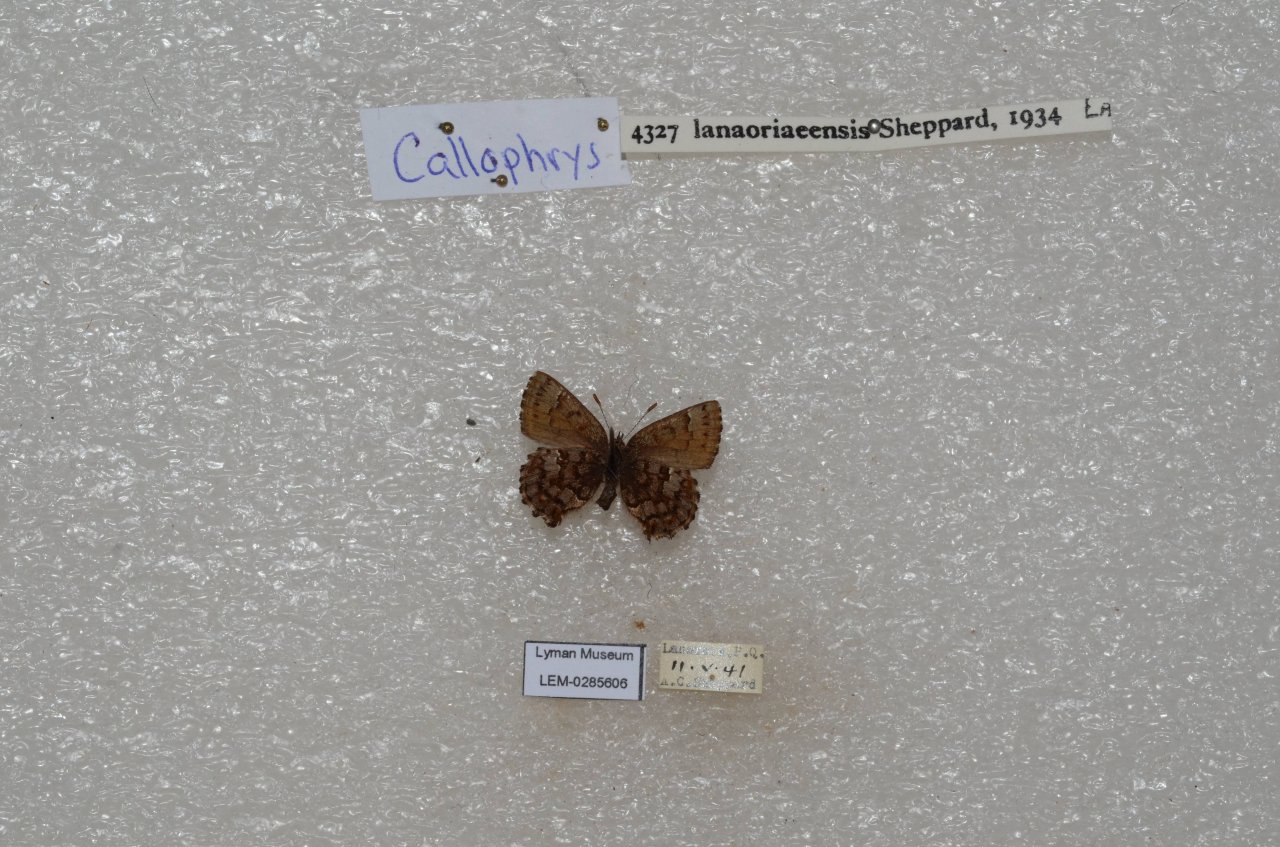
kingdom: Animalia
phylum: Arthropoda
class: Insecta
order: Lepidoptera
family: Lycaenidae
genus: Incisalia
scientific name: Incisalia lanoraieensis
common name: Bog Elfin
